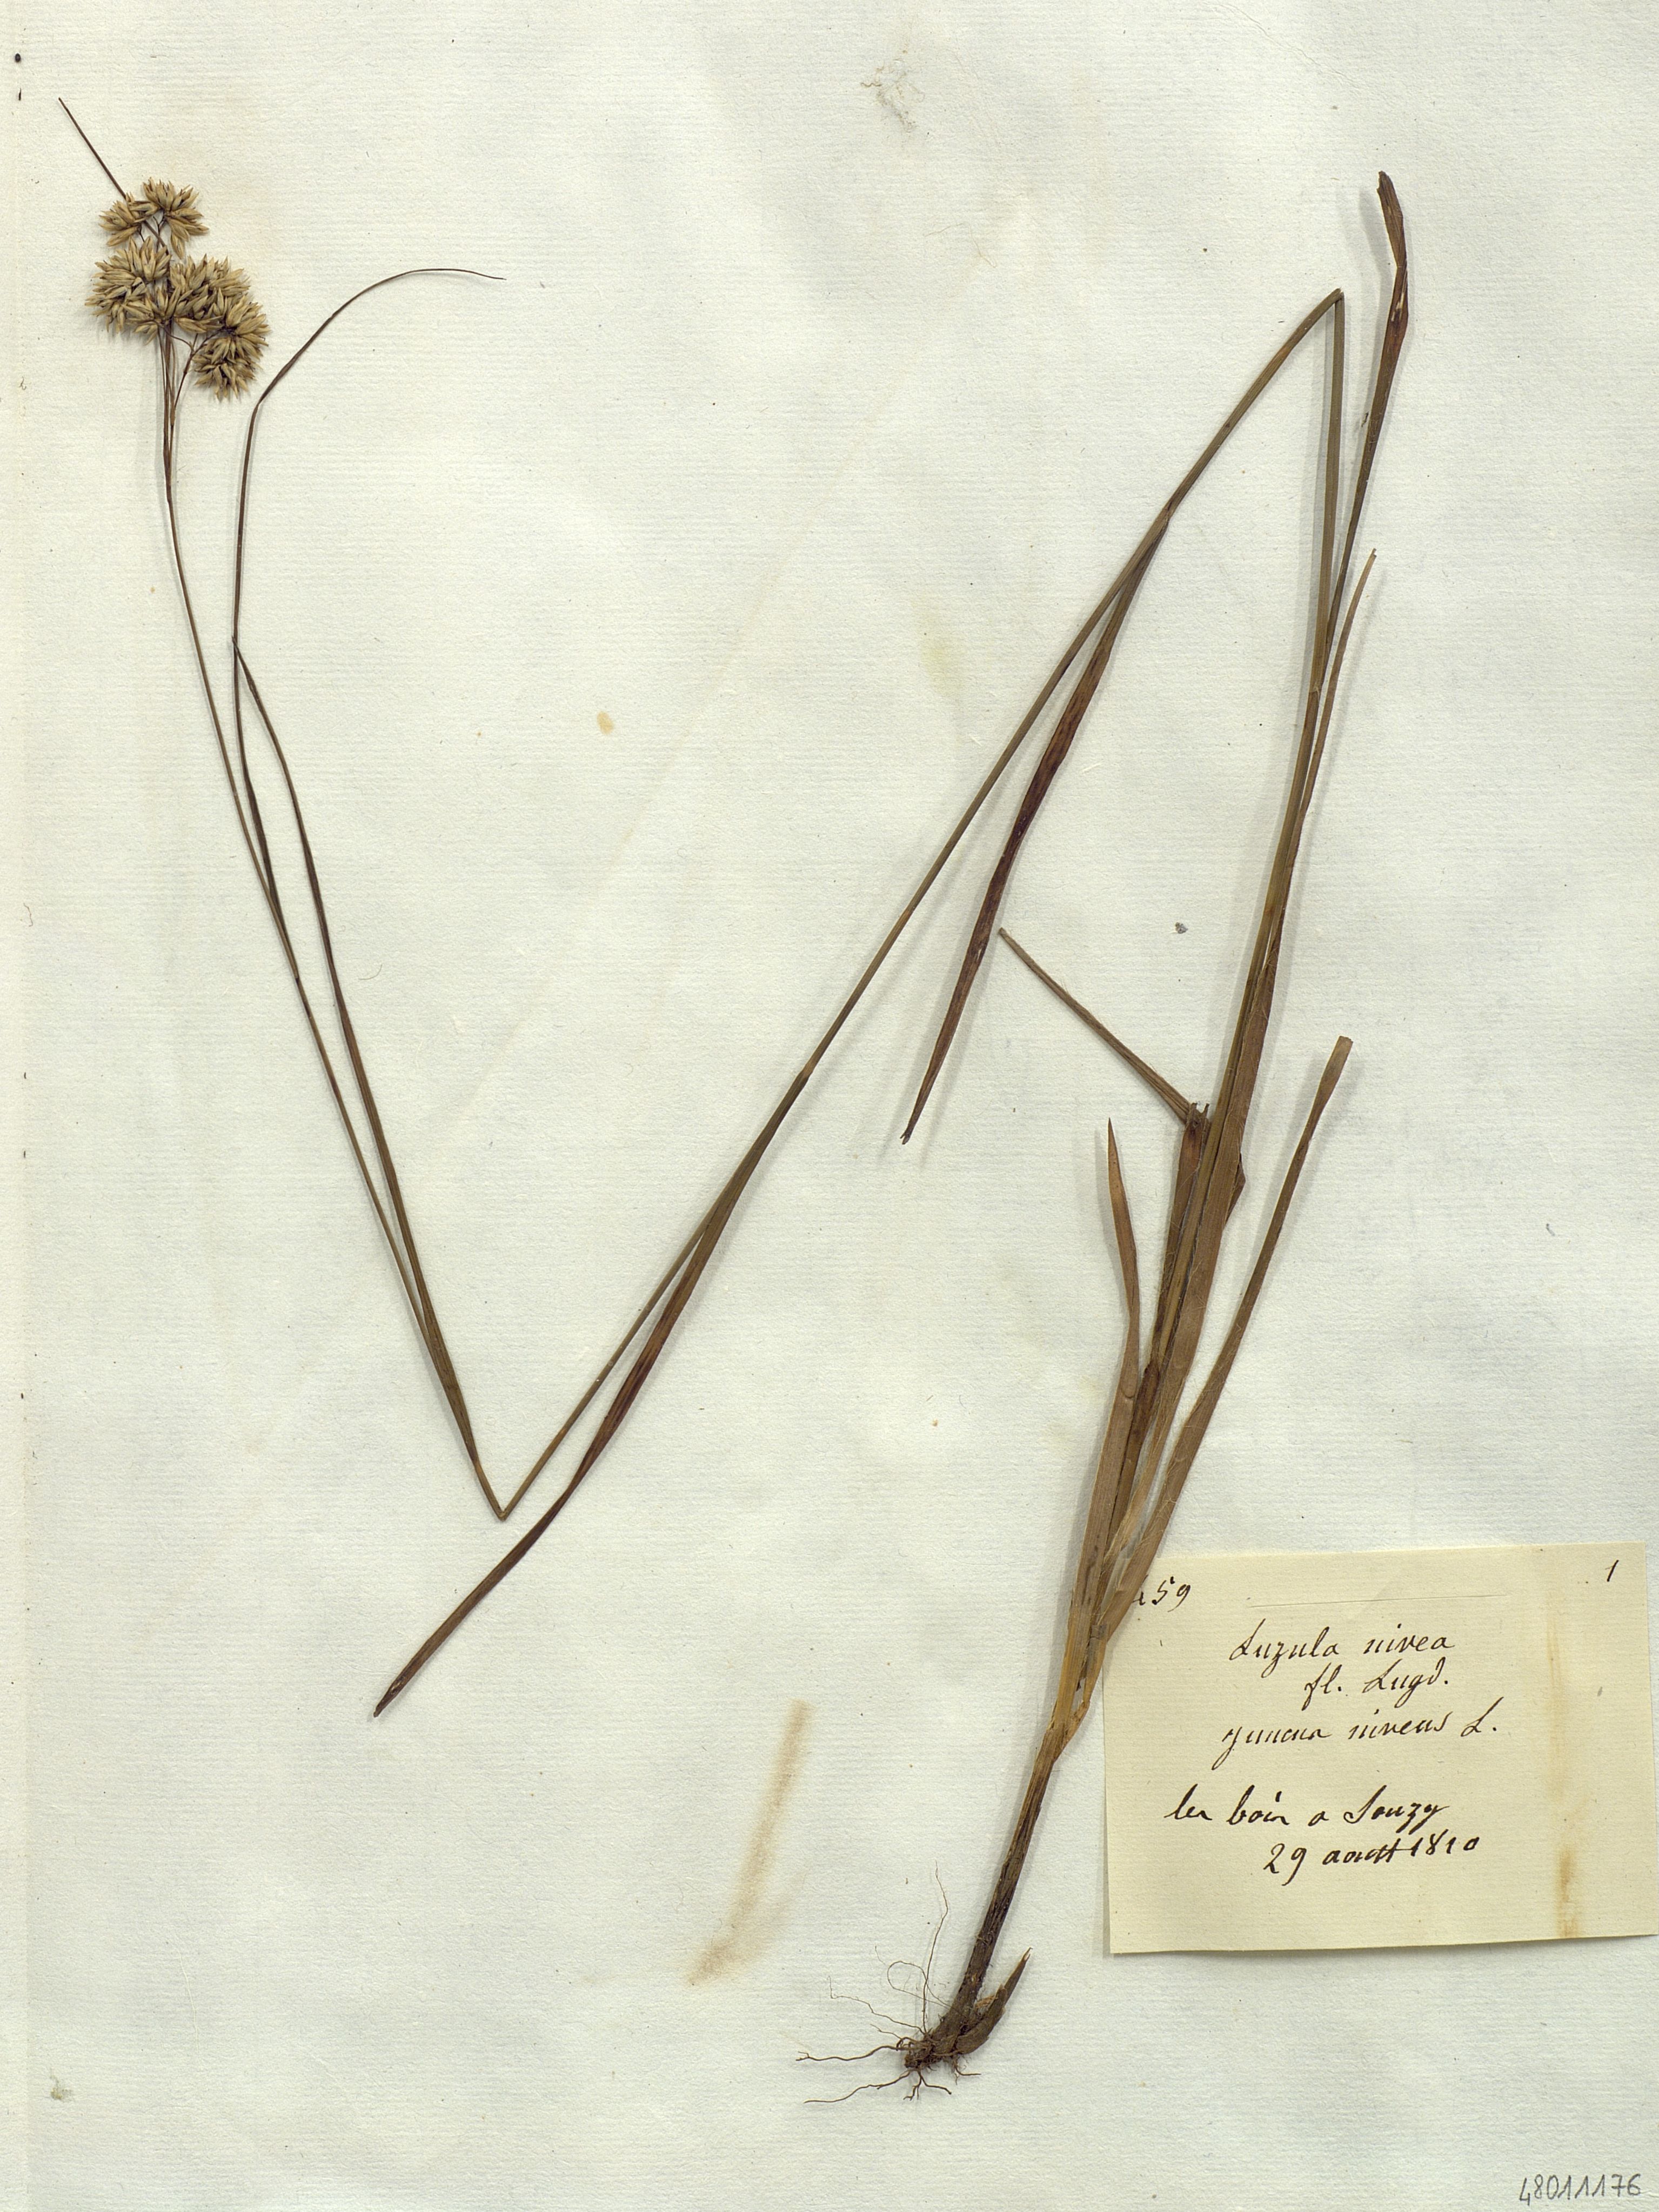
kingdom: Plantae
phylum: Tracheophyta
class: Liliopsida
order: Poales
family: Juncaceae
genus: Luzula
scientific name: Luzula nivea
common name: Snow-white wood-rush
